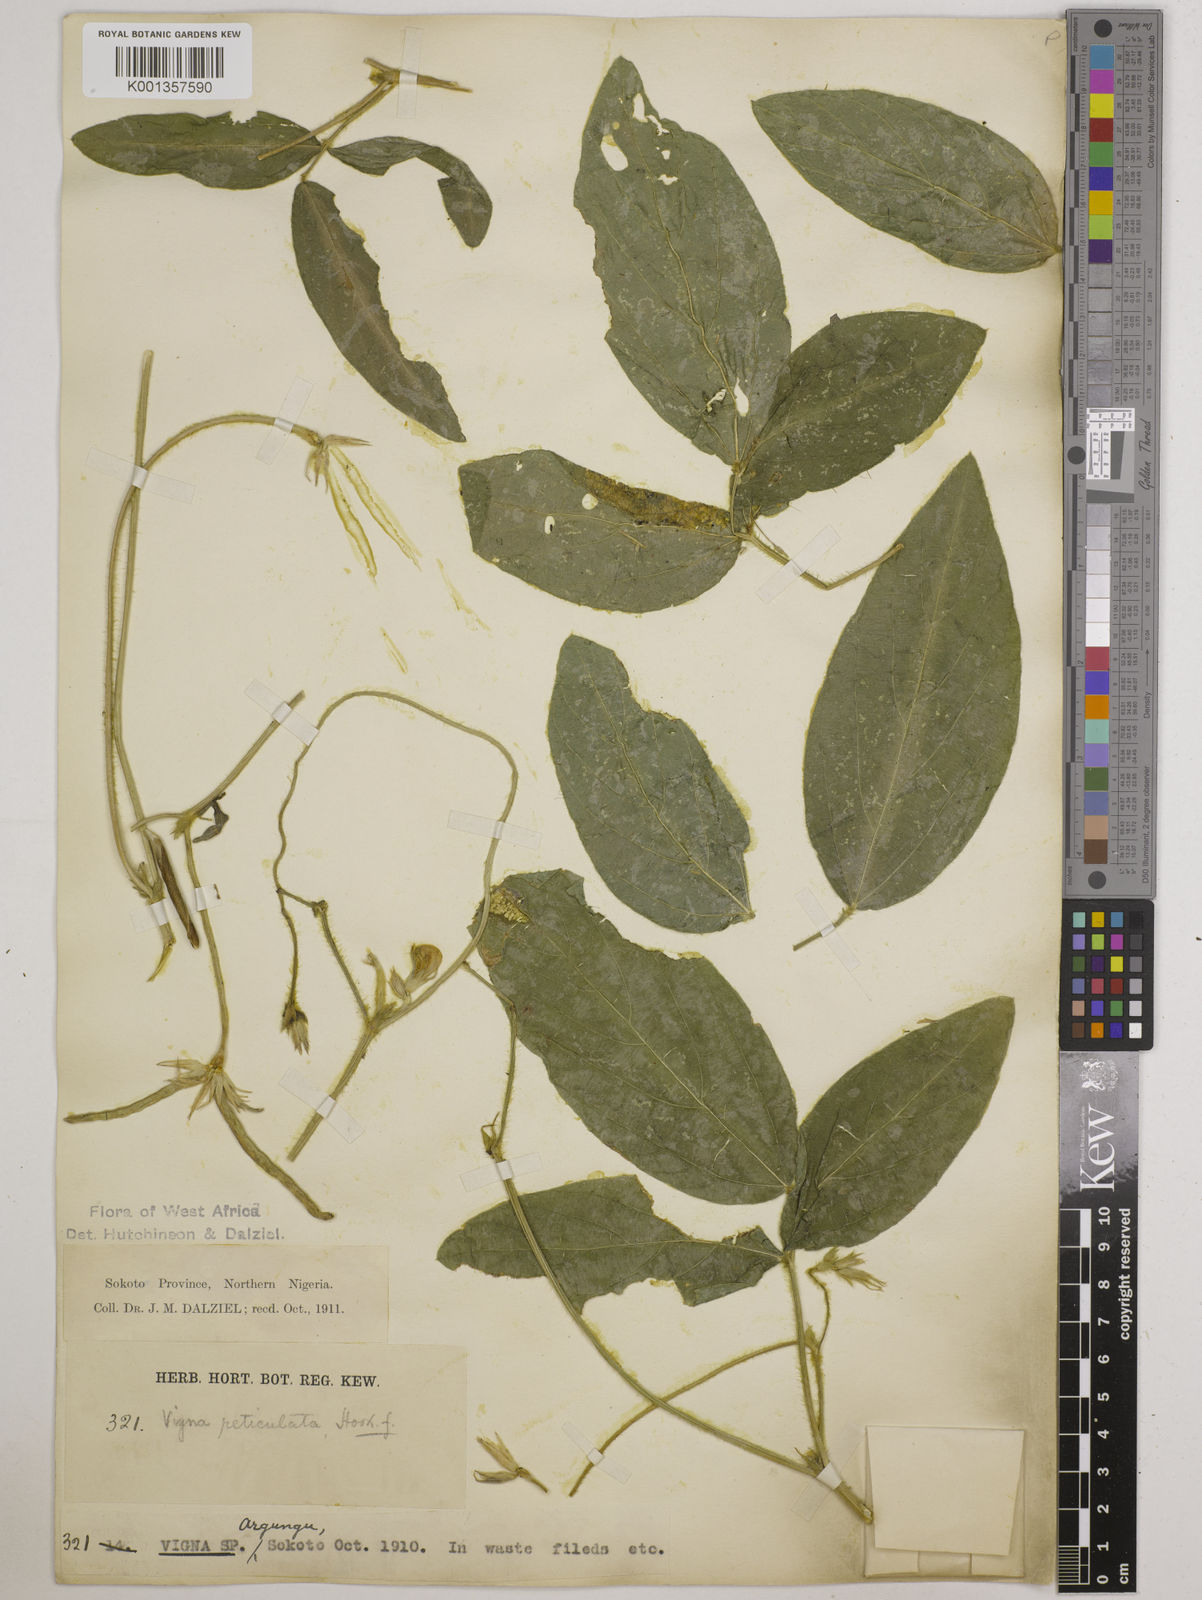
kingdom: Plantae
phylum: Tracheophyta
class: Magnoliopsida
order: Fabales
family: Fabaceae
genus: Vigna
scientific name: Vigna reticulata
